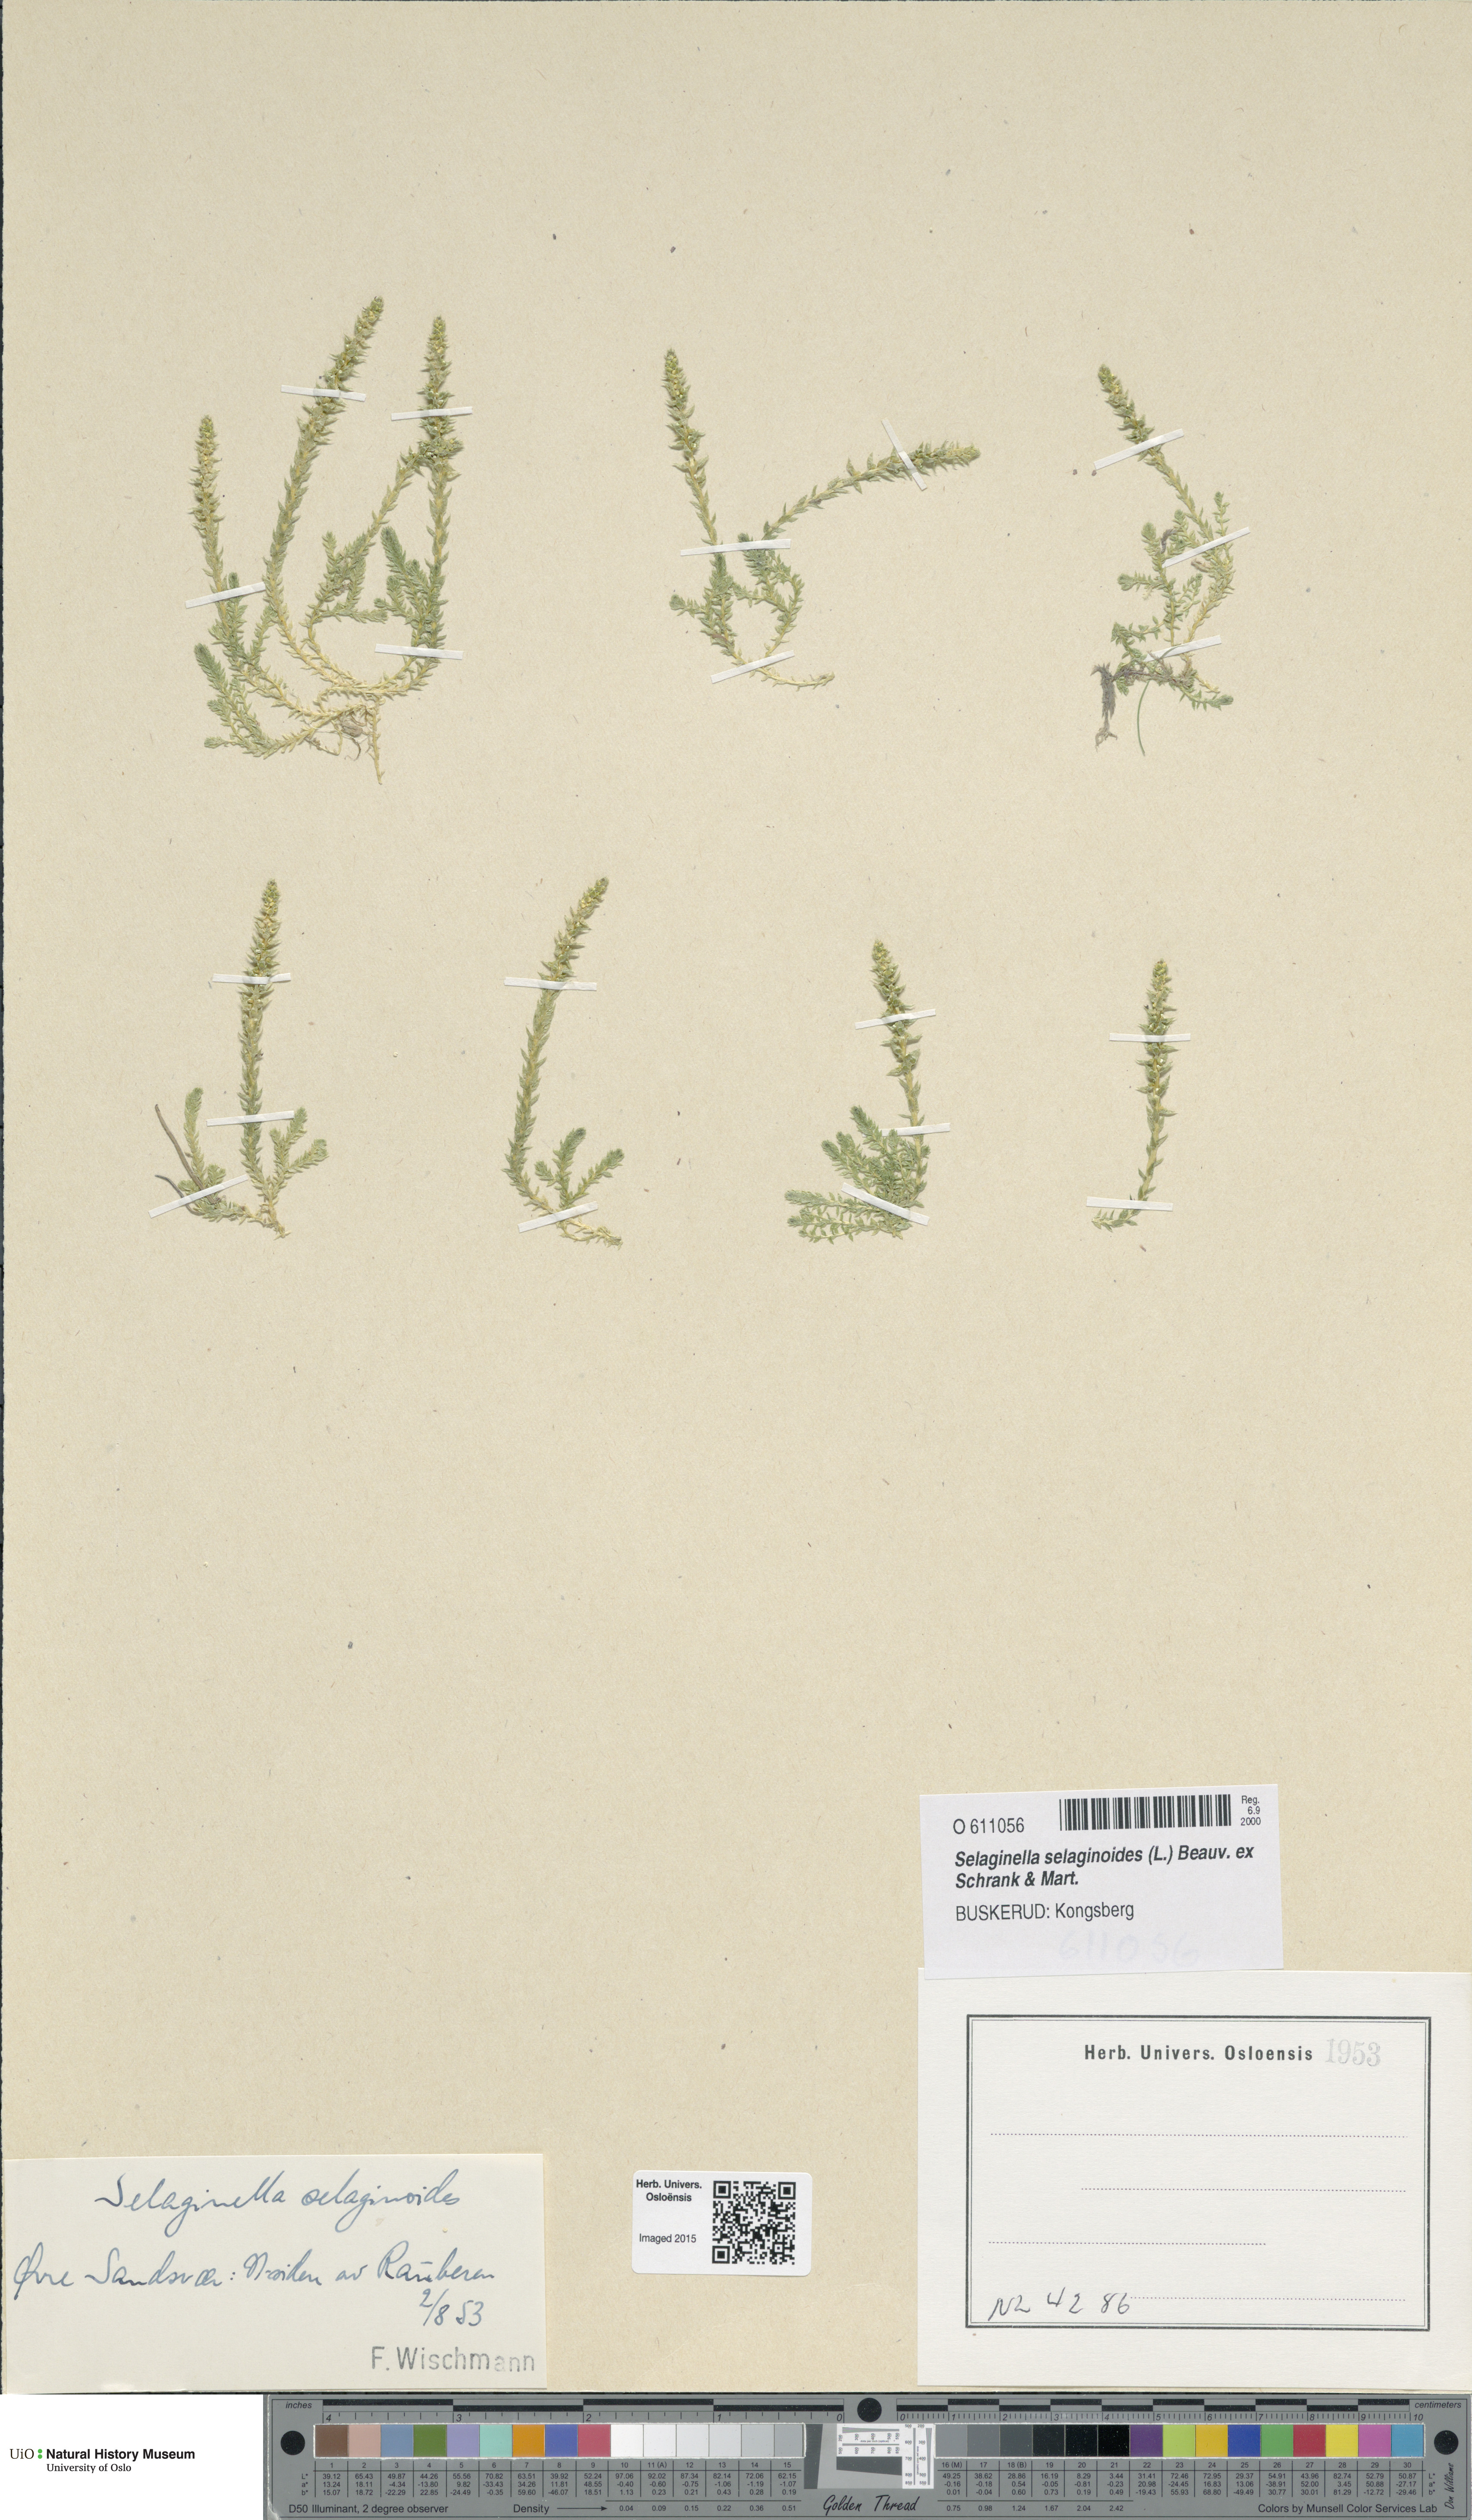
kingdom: Plantae
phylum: Tracheophyta
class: Lycopodiopsida
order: Selaginellales
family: Selaginellaceae
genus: Selaginella
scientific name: Selaginella selaginoides
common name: Prickly mountain-moss
